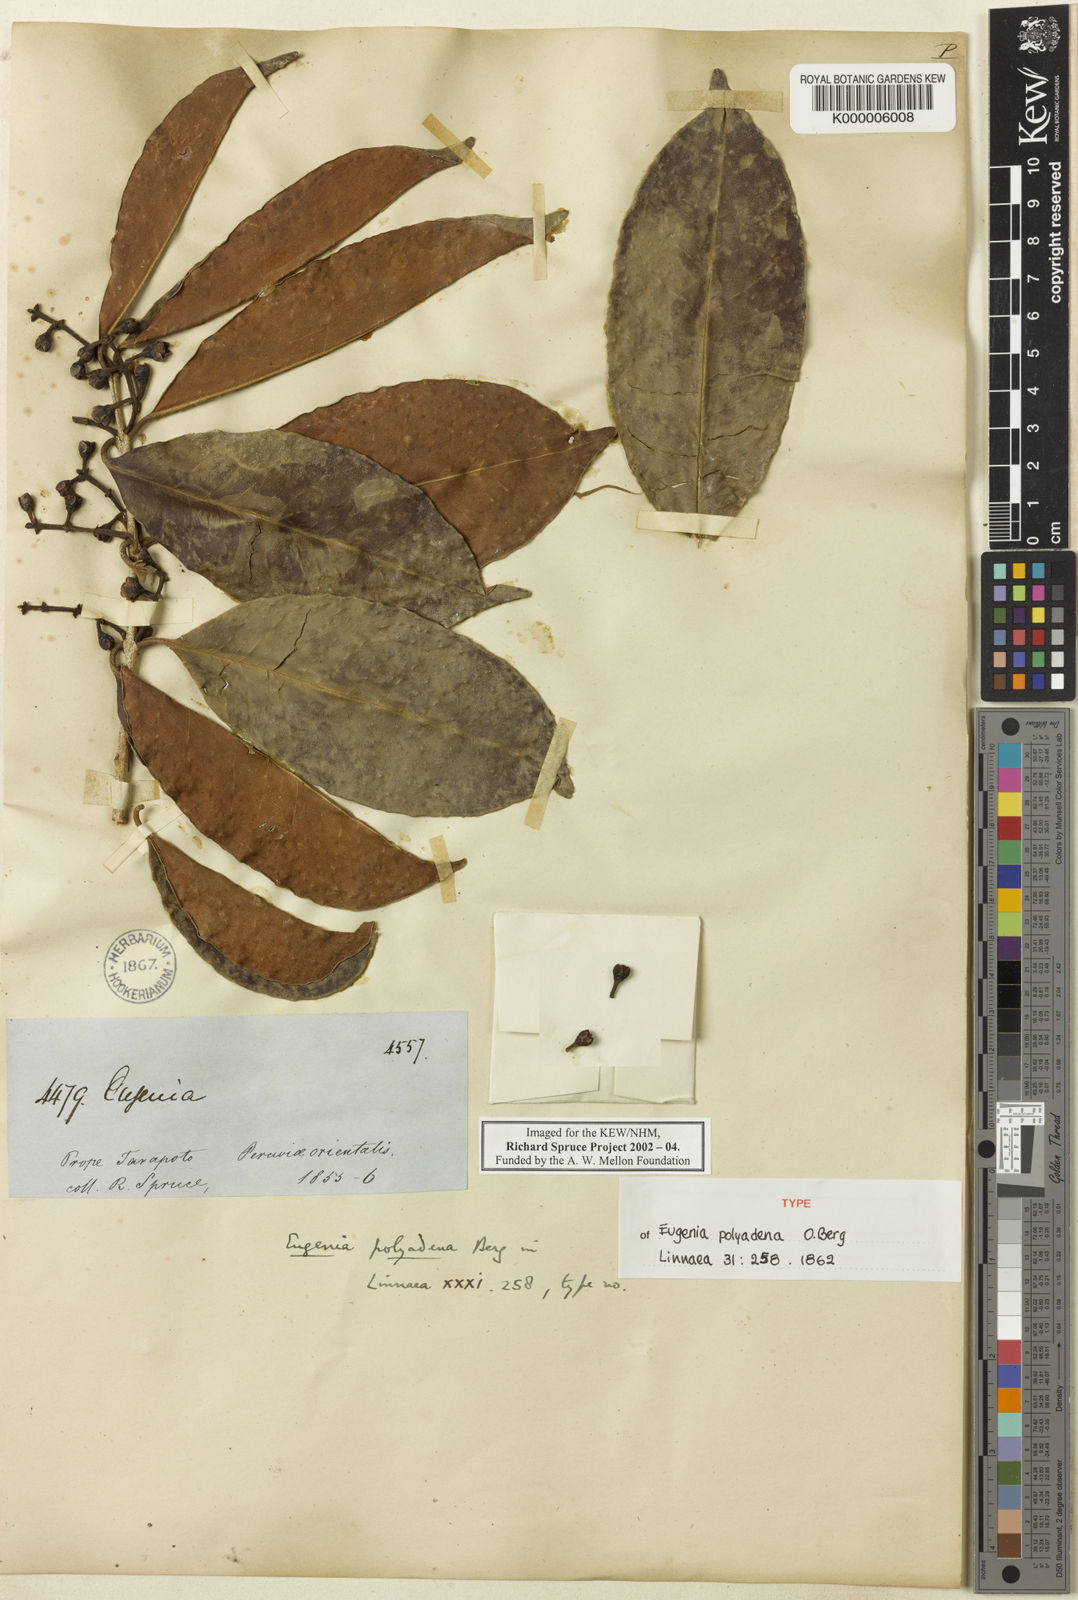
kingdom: Plantae
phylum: Tracheophyta
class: Magnoliopsida
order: Myrtales
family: Myrtaceae
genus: Eugenia
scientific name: Eugenia polyadena
